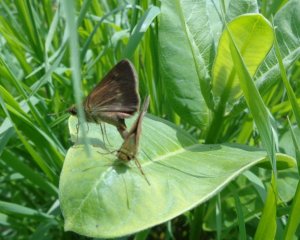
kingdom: Animalia
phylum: Arthropoda
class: Insecta
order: Lepidoptera
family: Hesperiidae
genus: Polites
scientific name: Polites egeremet
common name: Northern Broken-Dash
